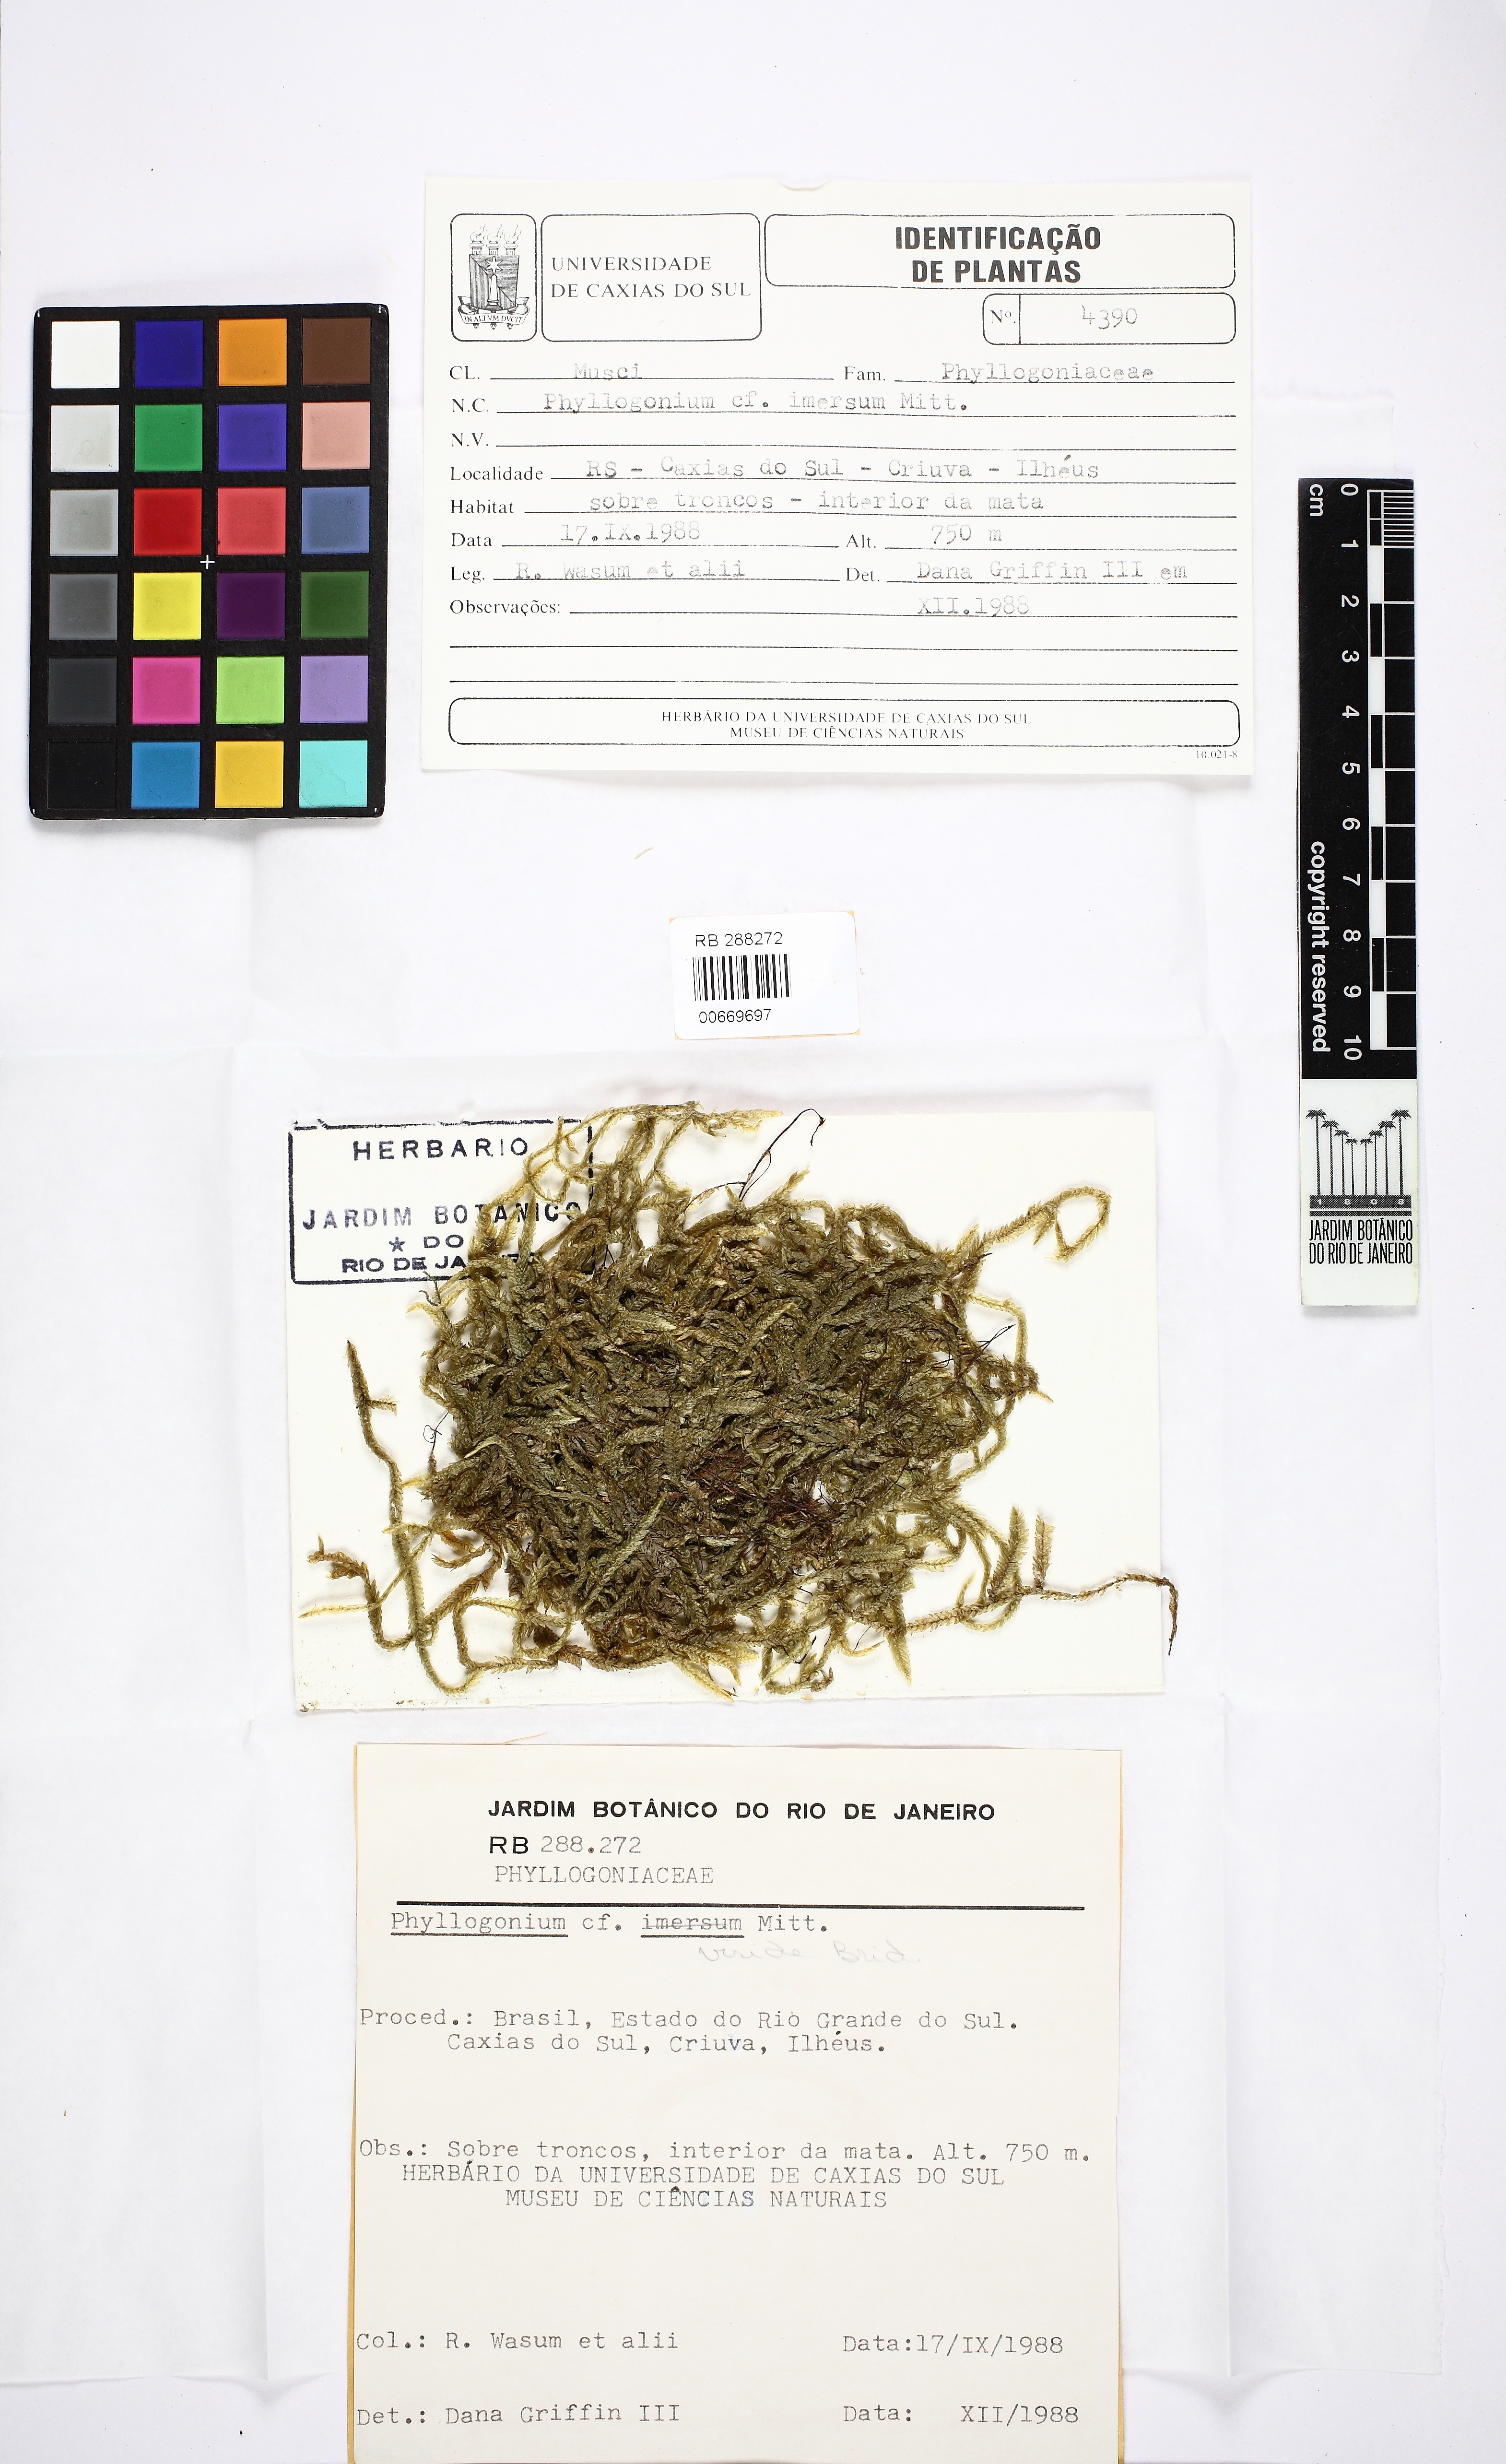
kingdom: Plantae
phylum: Bryophyta
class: Bryopsida
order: Hypnales
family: Phyllogoniaceae
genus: Phyllogonium
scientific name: Phyllogonium viride
